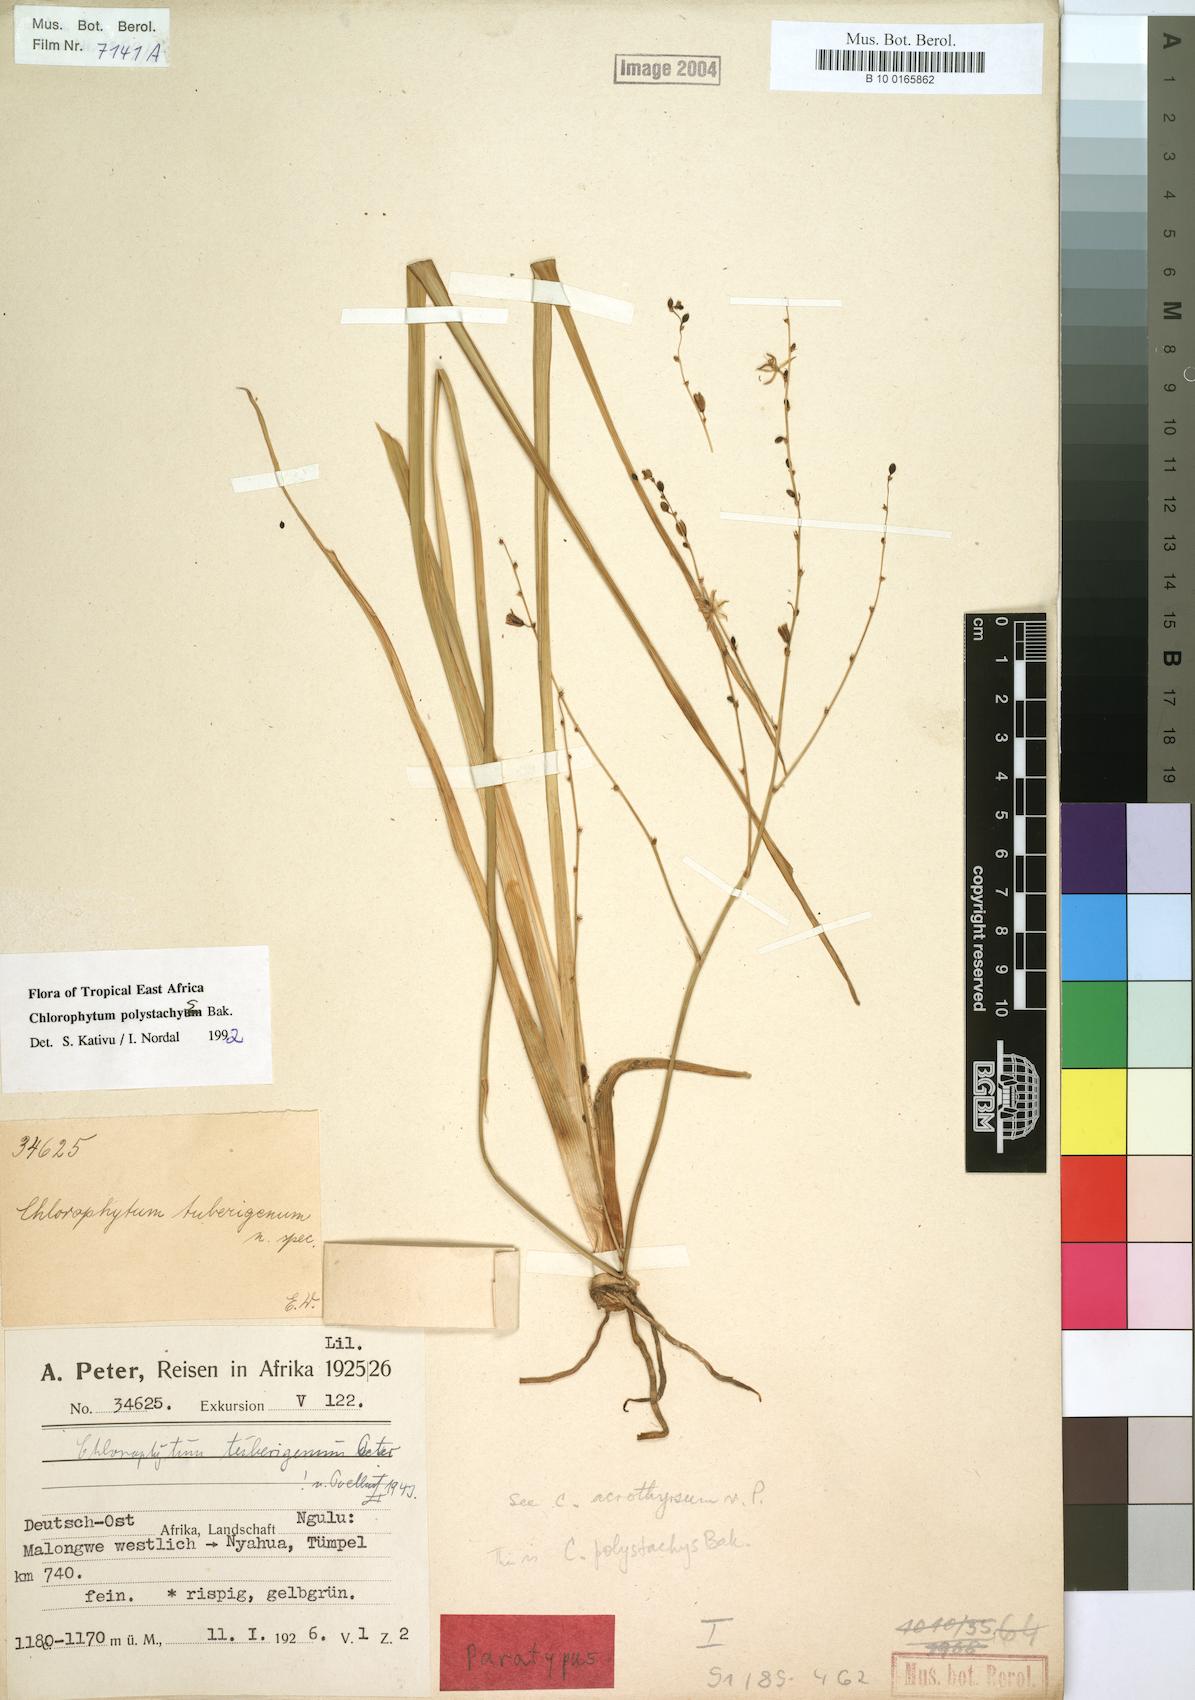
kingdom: Plantae
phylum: Tracheophyta
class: Liliopsida
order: Asparagales
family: Asparagaceae
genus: Chlorophytum
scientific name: Chlorophytum polystachys
